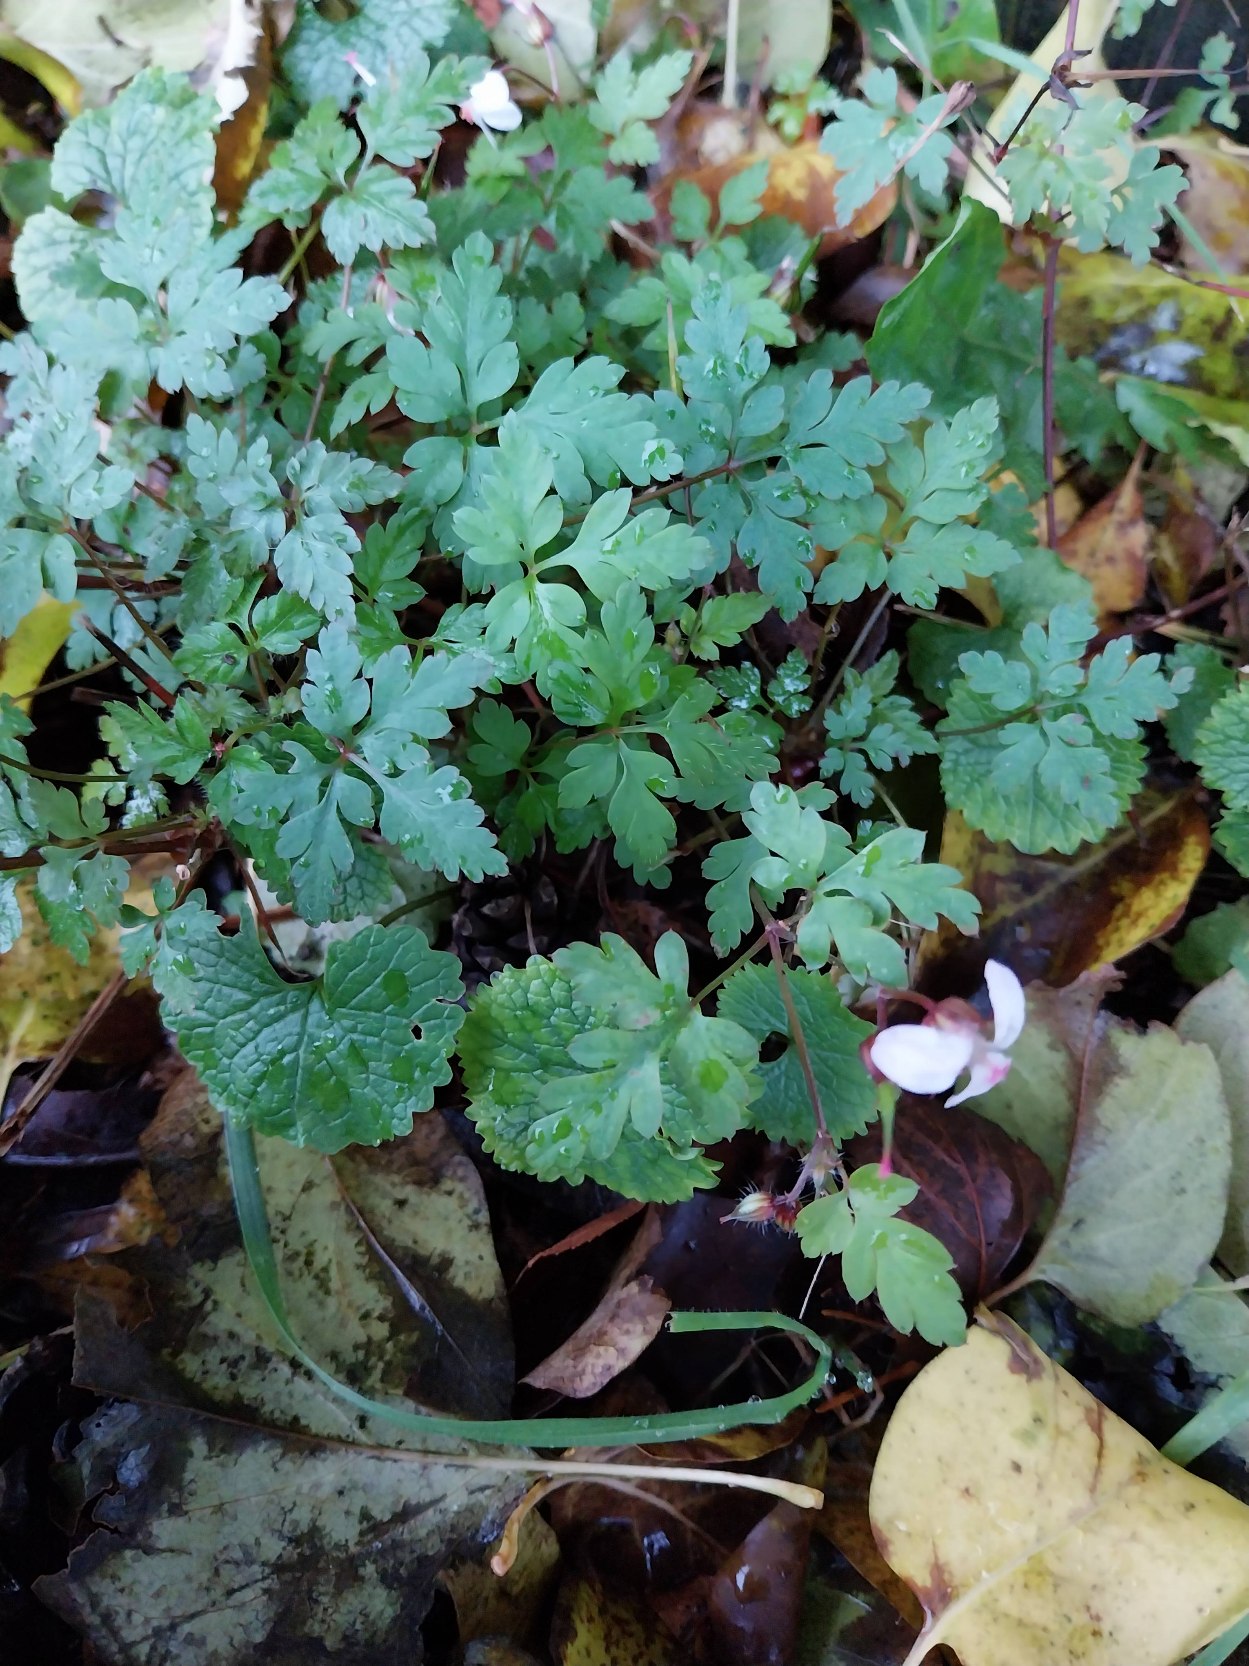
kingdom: Plantae
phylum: Tracheophyta
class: Magnoliopsida
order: Geraniales
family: Geraniaceae
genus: Geranium
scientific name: Geranium robertianum
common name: Stinkende storkenæb
